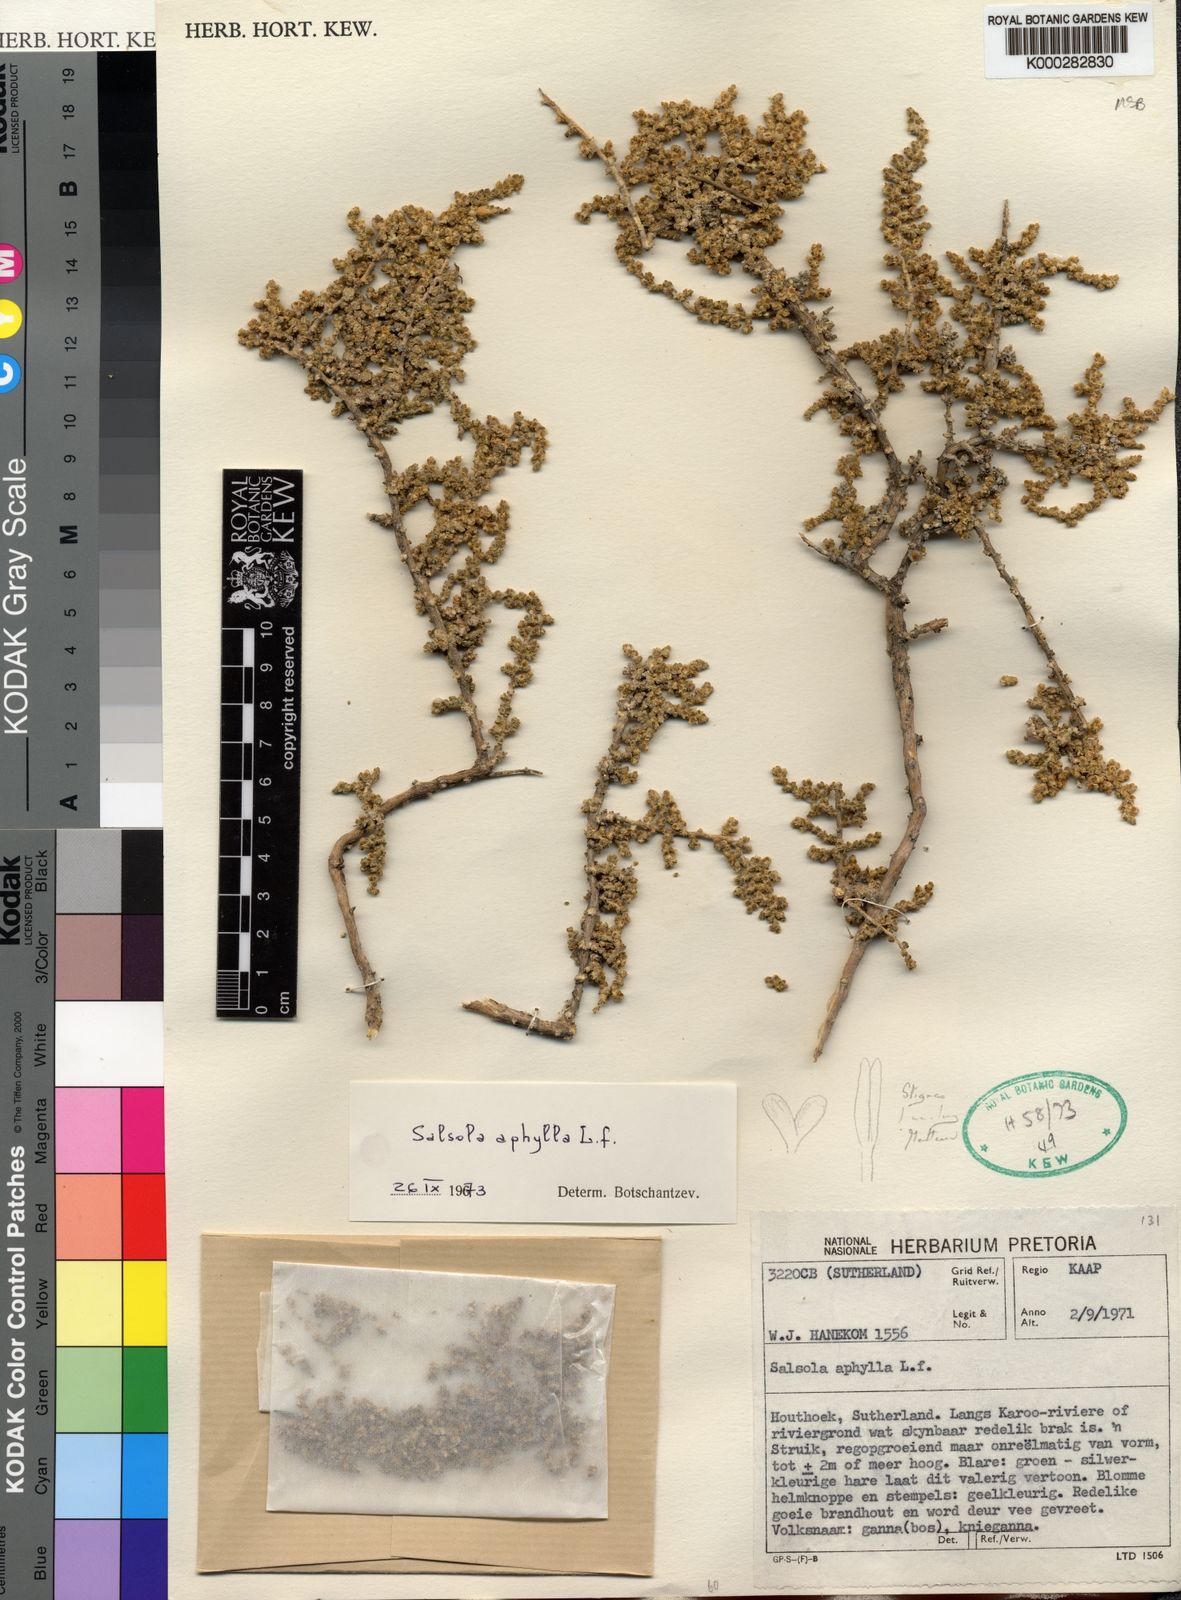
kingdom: Plantae
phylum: Tracheophyta
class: Magnoliopsida
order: Caryophyllales
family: Amaranthaceae
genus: Caroxylon
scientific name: Caroxylon aphyllum
